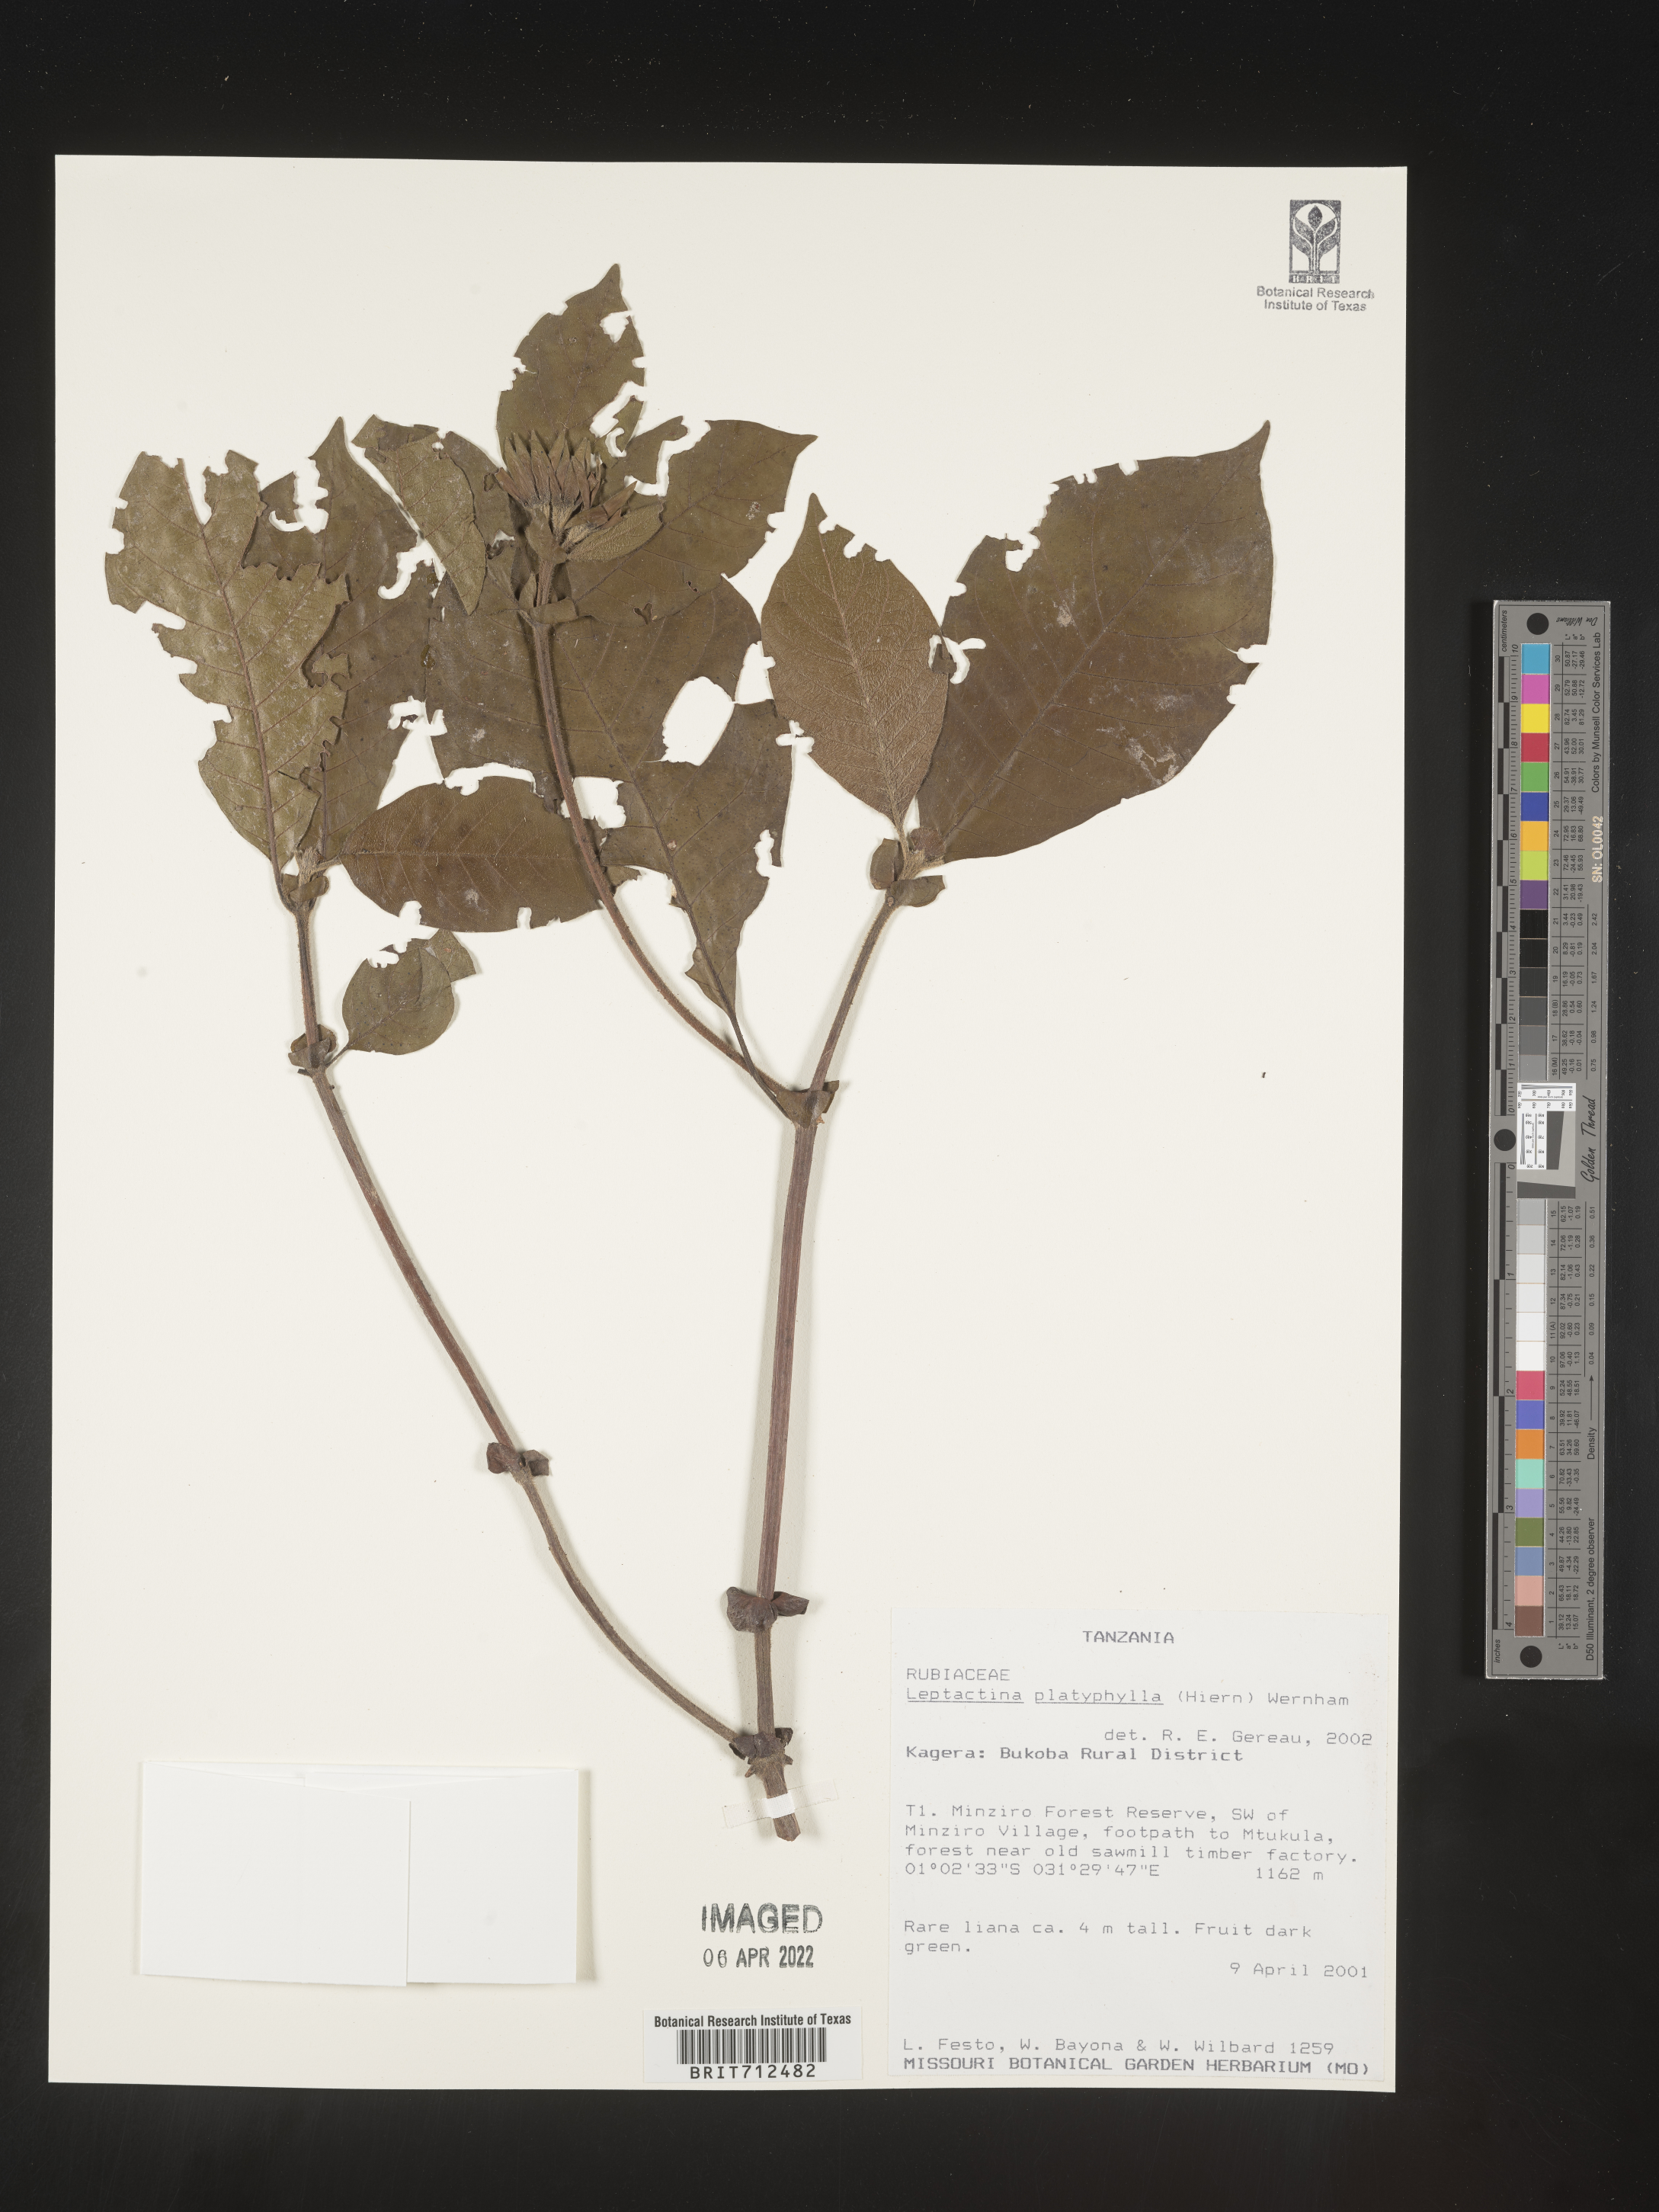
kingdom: Plantae
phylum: Tracheophyta
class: Magnoliopsida
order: Gentianales
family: Rubiaceae
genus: Leptactinia
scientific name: Leptactinia
